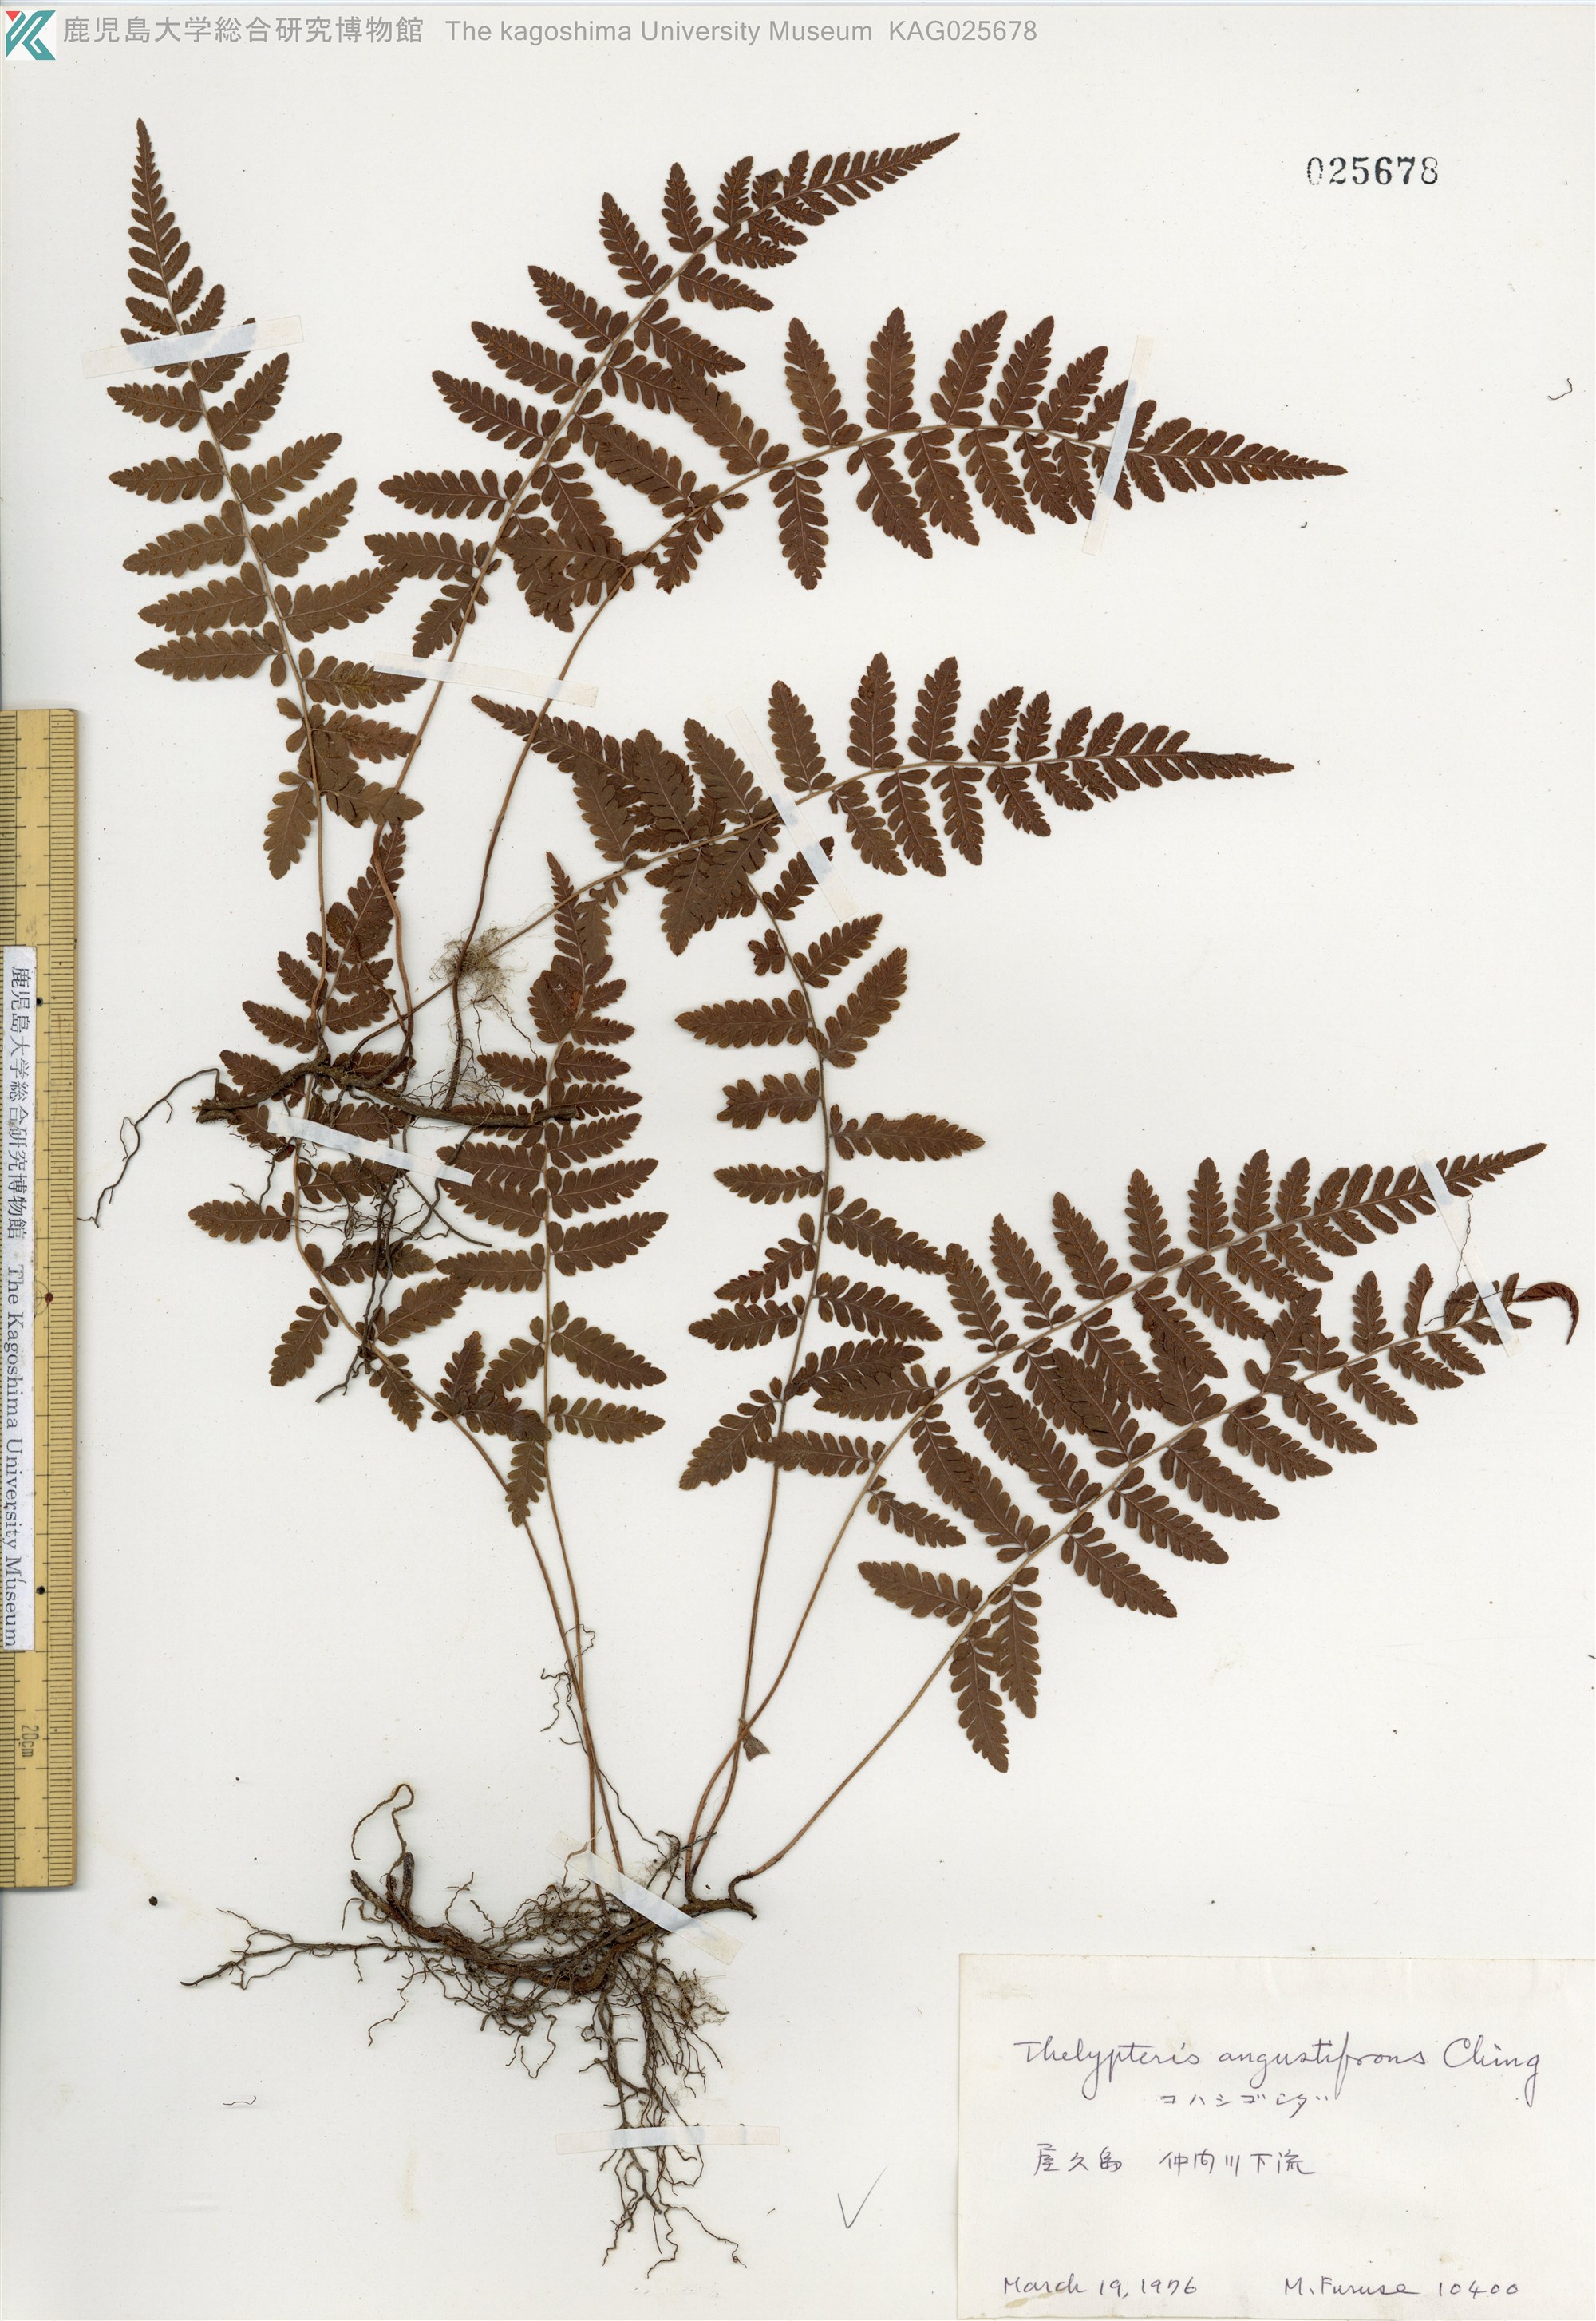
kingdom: Plantae
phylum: Tracheophyta
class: Polypodiopsida
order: Polypodiales
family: Thelypteridaceae
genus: Amauropelta
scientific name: Amauropelta angustifrons
